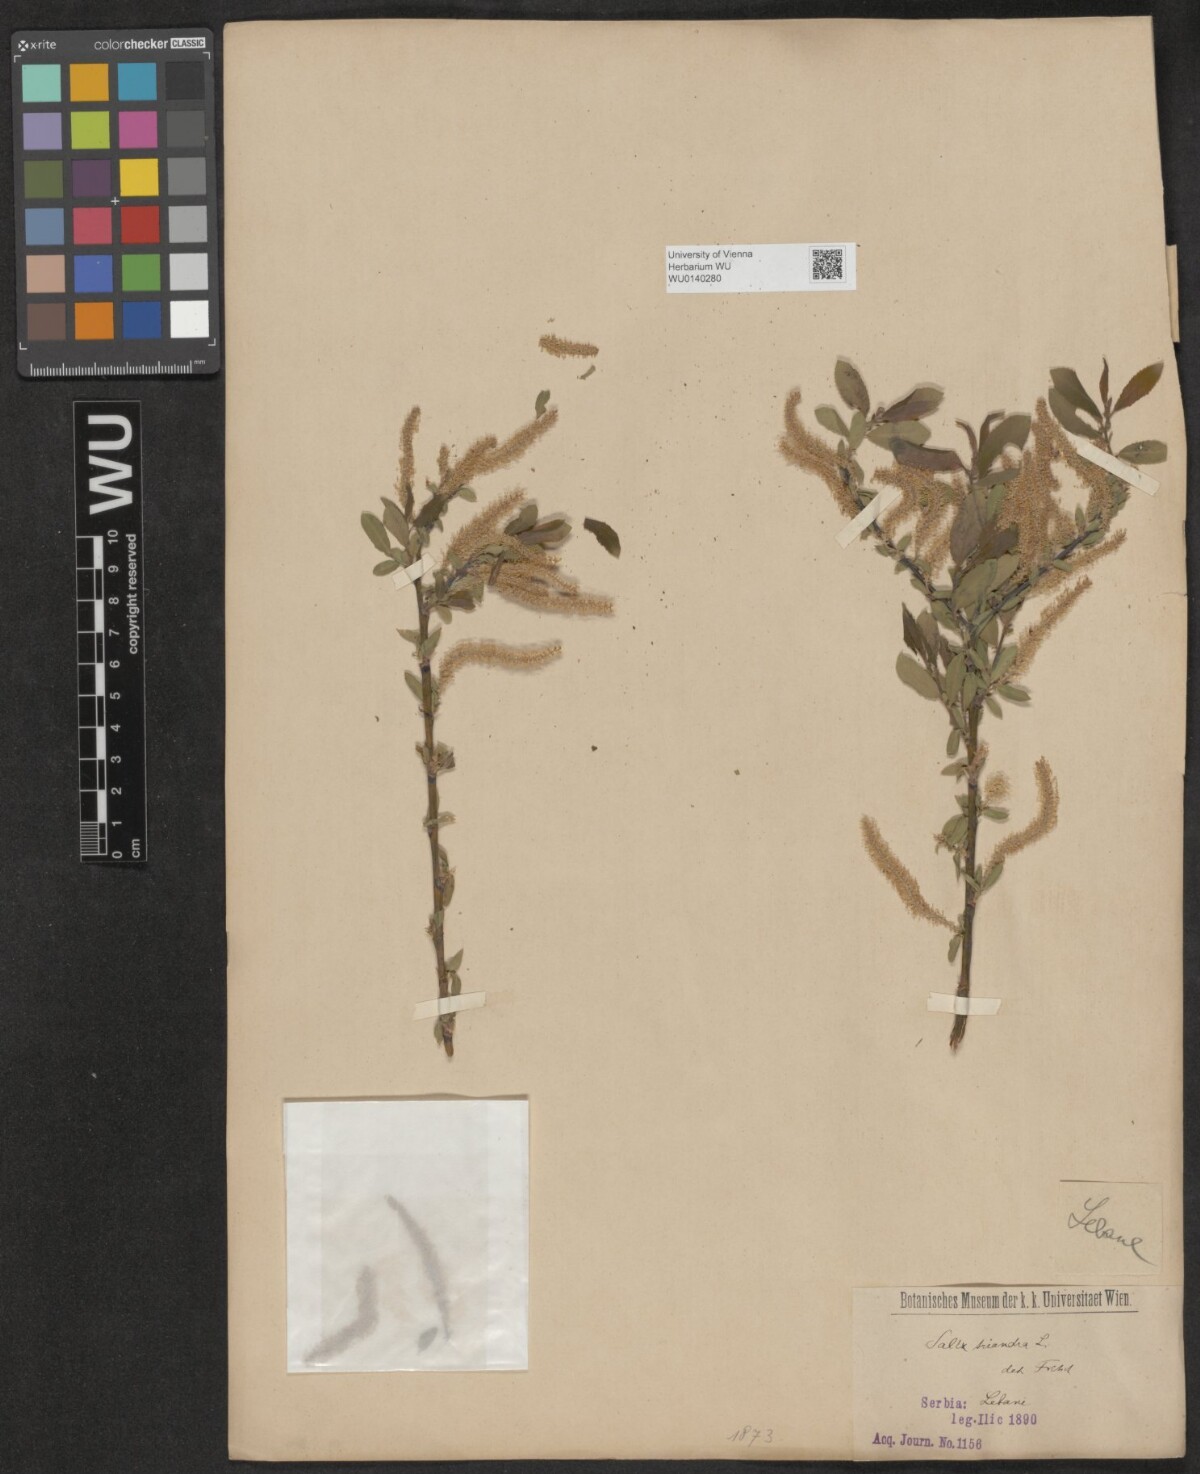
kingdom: Plantae
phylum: Tracheophyta
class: Magnoliopsida
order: Malpighiales
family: Salicaceae
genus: Salix
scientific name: Salix triandra
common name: Almond willow
